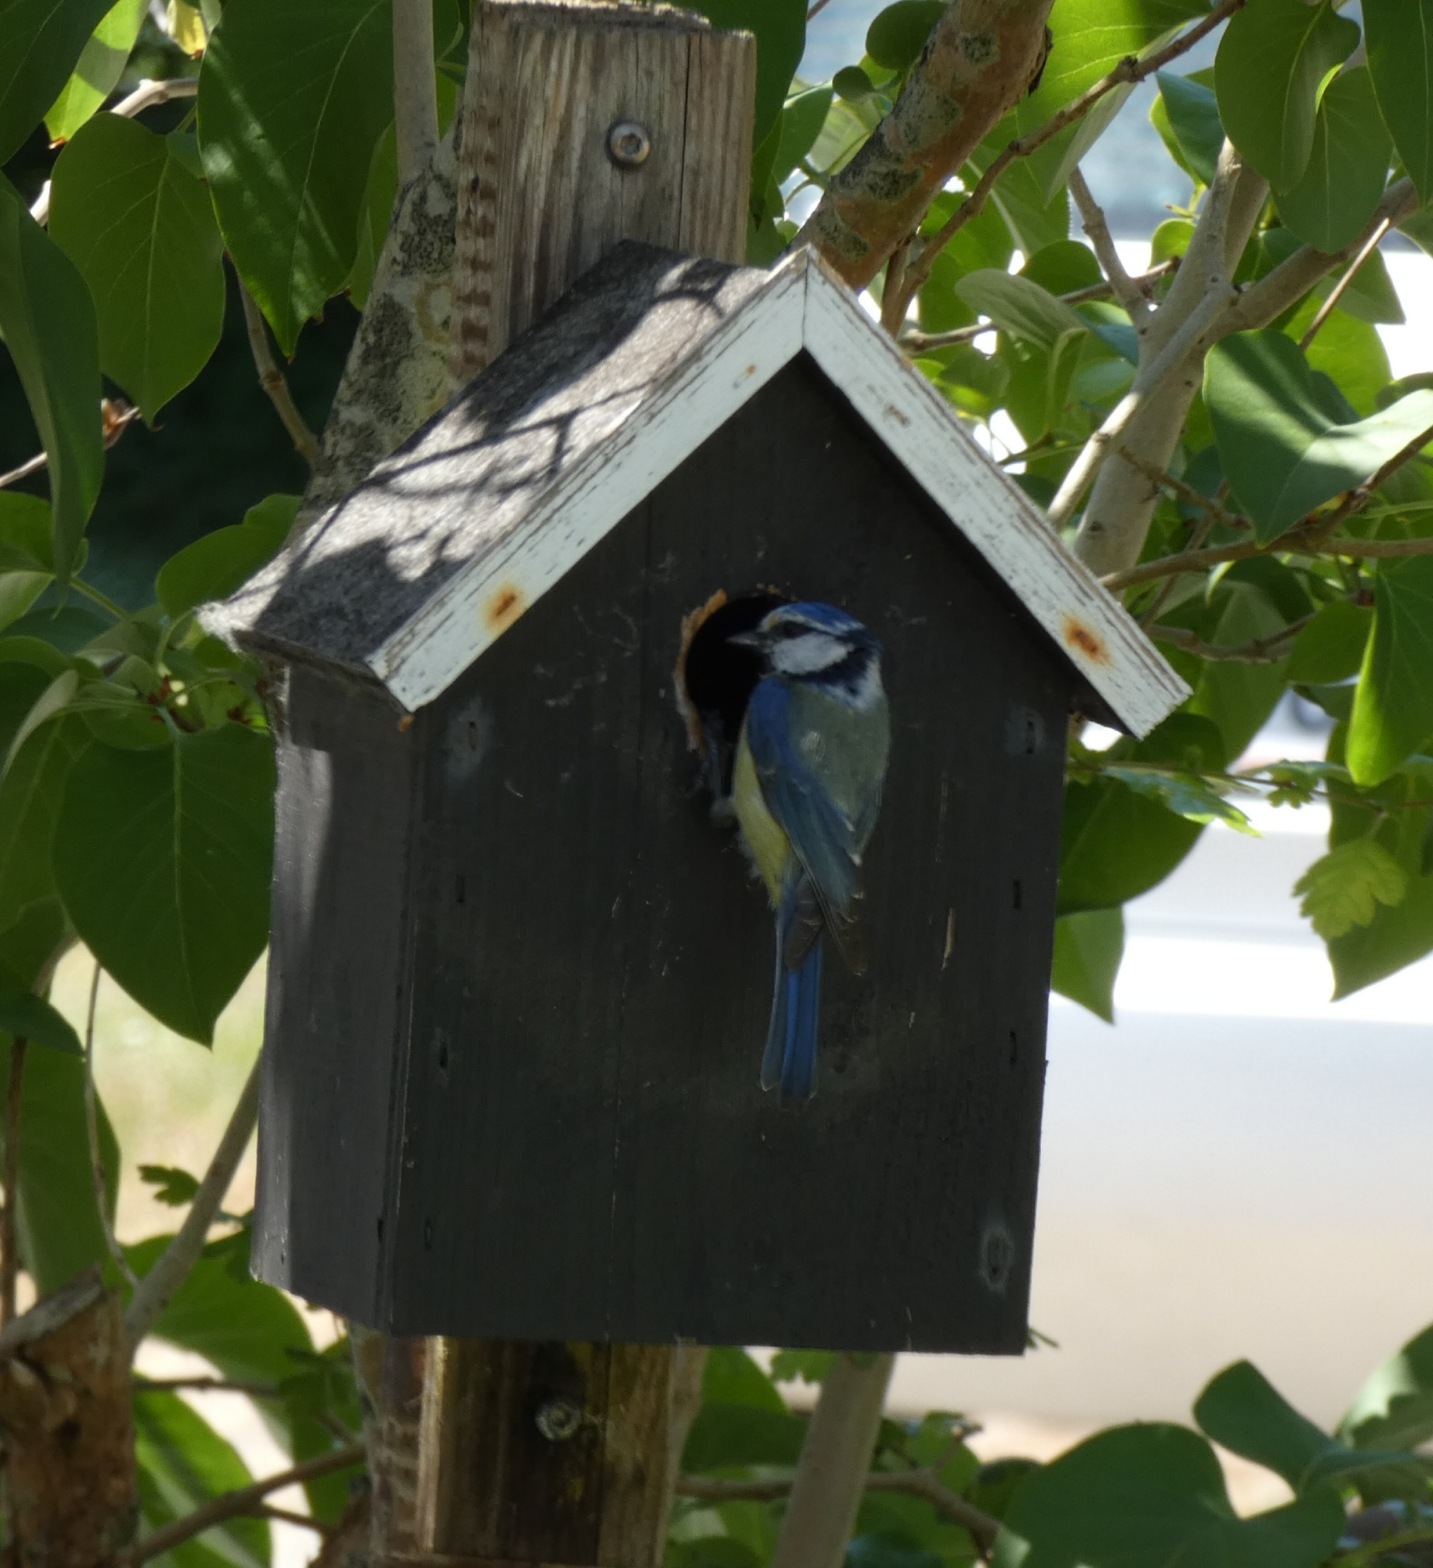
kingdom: Animalia
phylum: Chordata
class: Aves
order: Passeriformes
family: Paridae
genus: Cyanistes
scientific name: Cyanistes caeruleus
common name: Blåmejse
